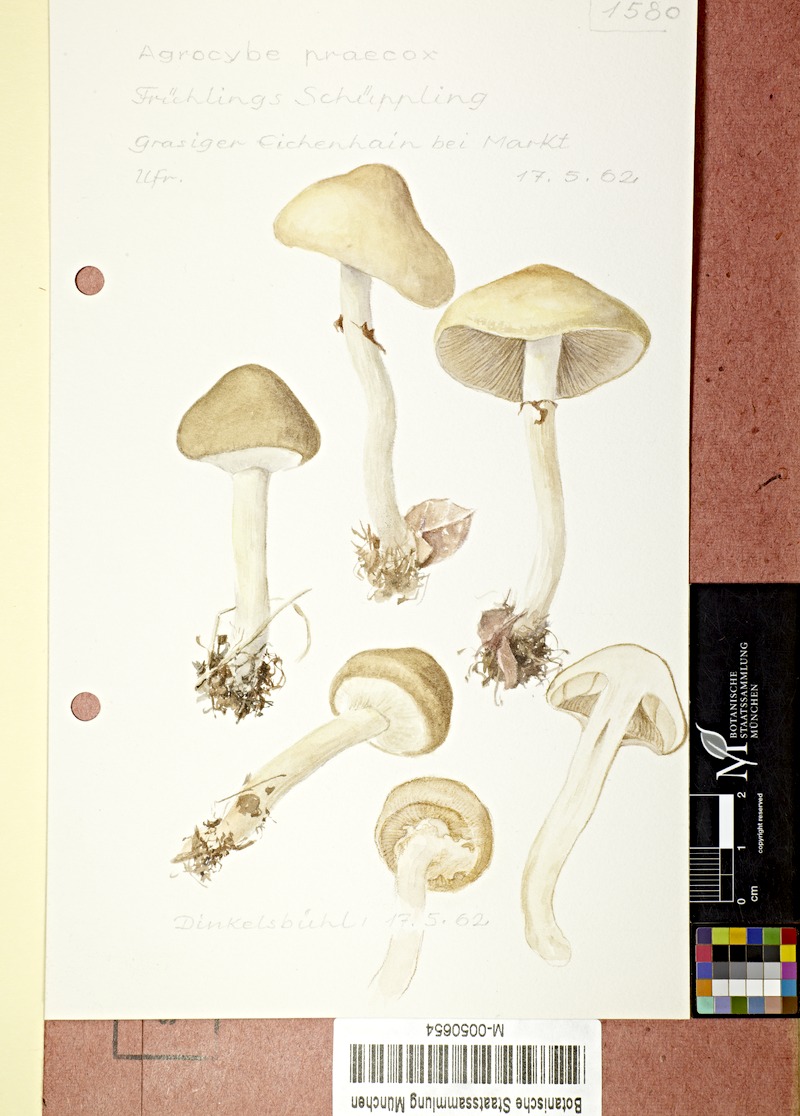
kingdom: Fungi
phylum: Basidiomycota
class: Agaricomycetes
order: Agaricales
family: Strophariaceae
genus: Agrocybe
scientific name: Agrocybe praecox
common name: Spring fieldcap
